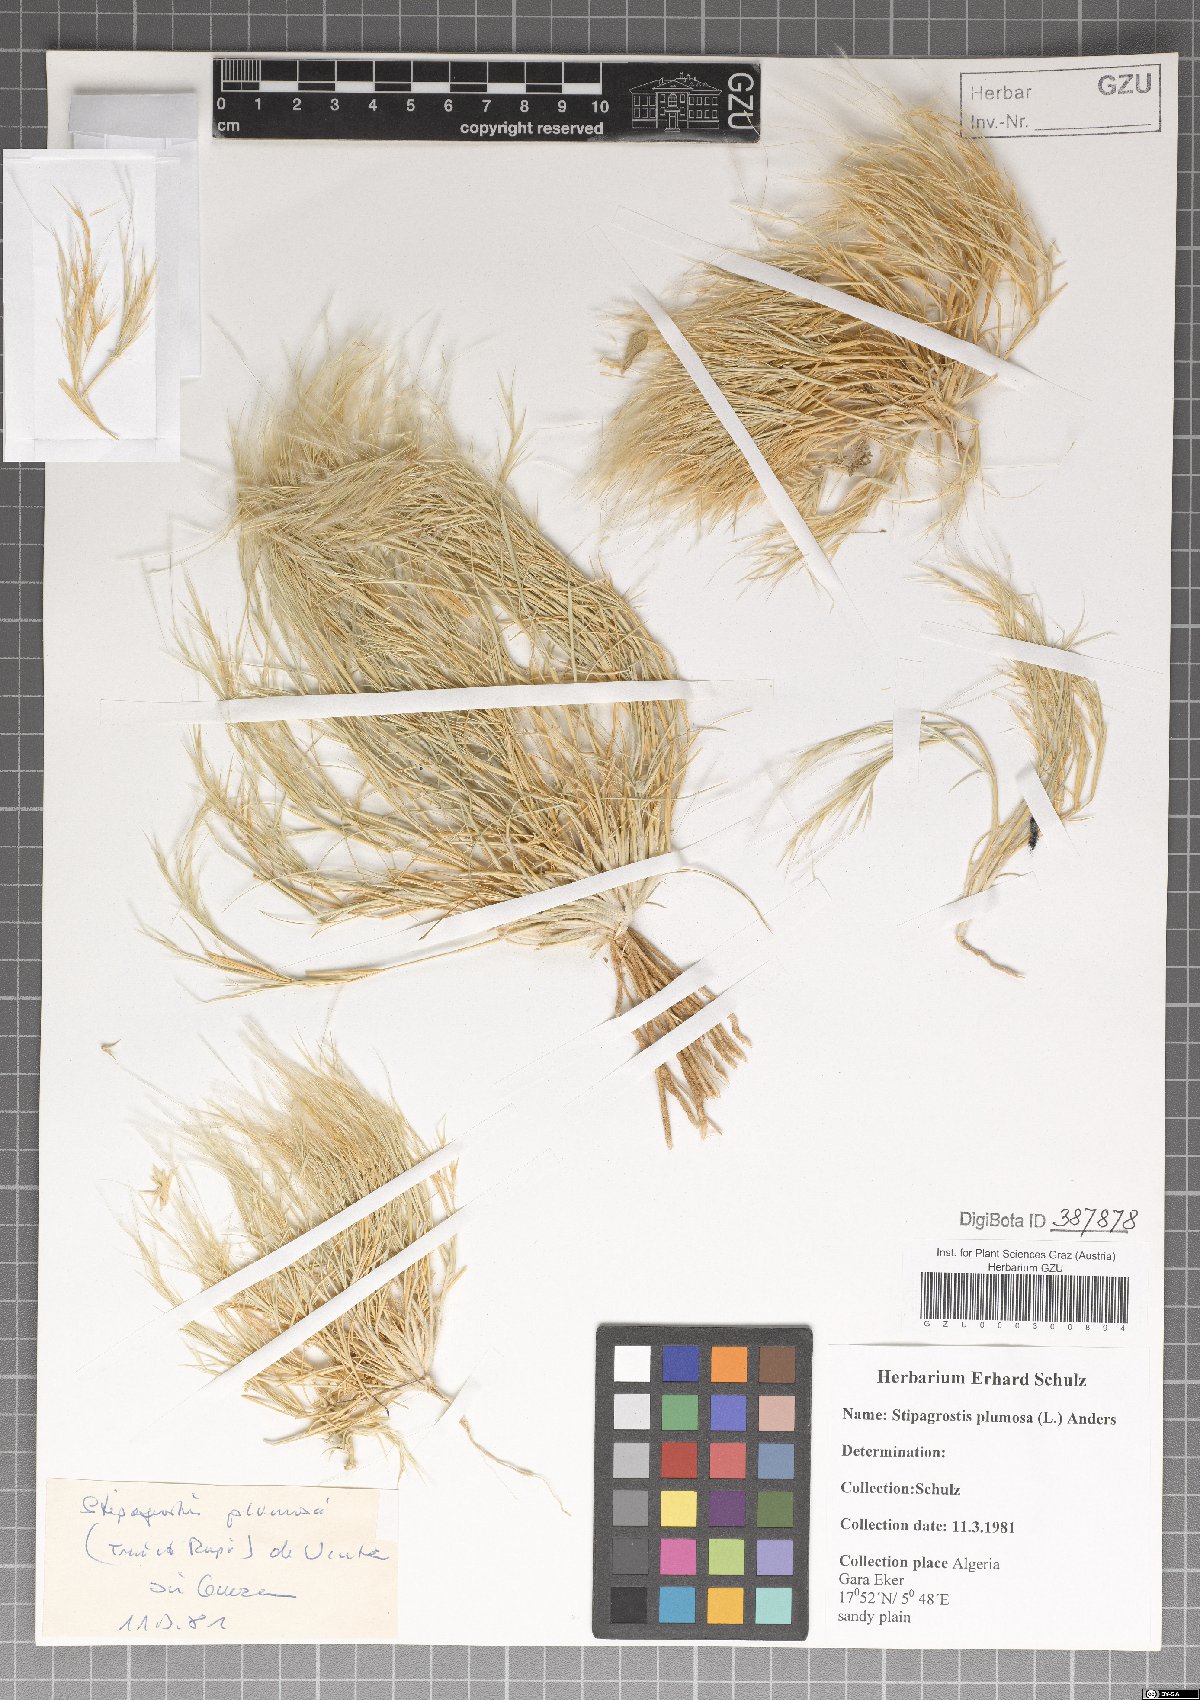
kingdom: Plantae
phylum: Tracheophyta
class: Liliopsida
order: Poales
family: Poaceae
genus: Stipagrostis
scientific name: Stipagrostis plumosa
